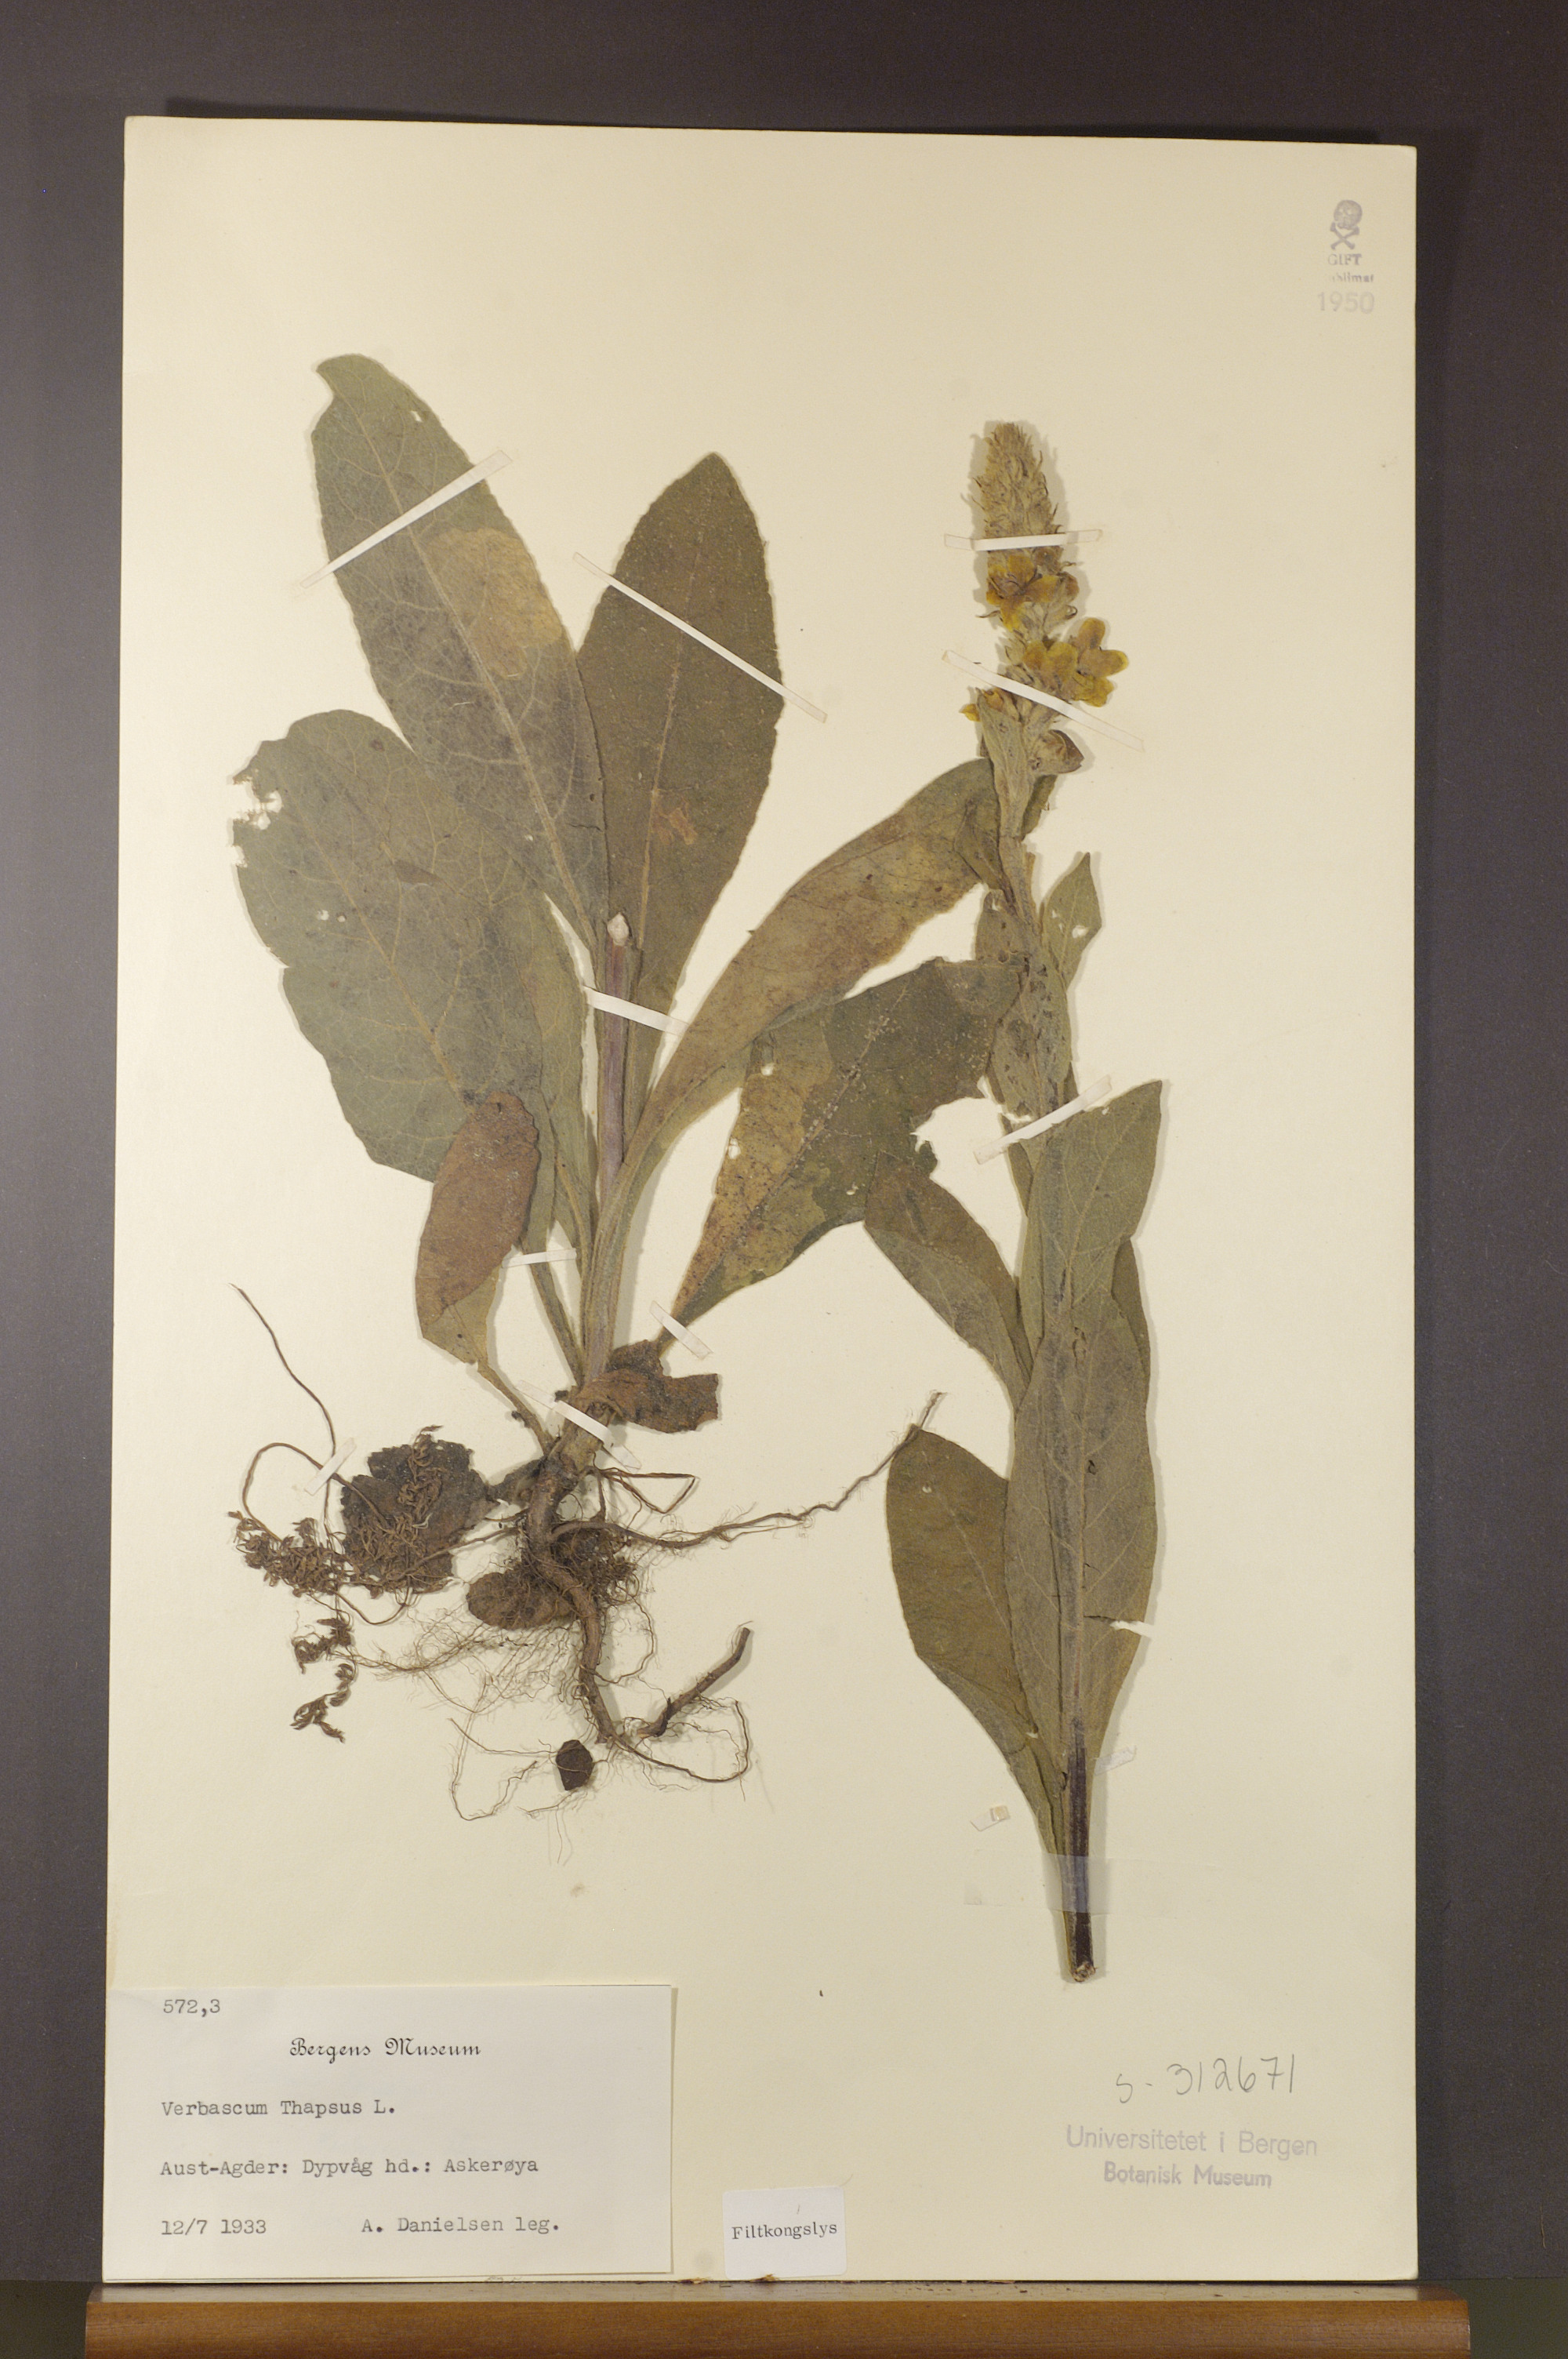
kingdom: Plantae
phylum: Tracheophyta
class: Magnoliopsida
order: Lamiales
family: Scrophulariaceae
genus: Verbascum
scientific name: Verbascum thapsus
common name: Common mullein
